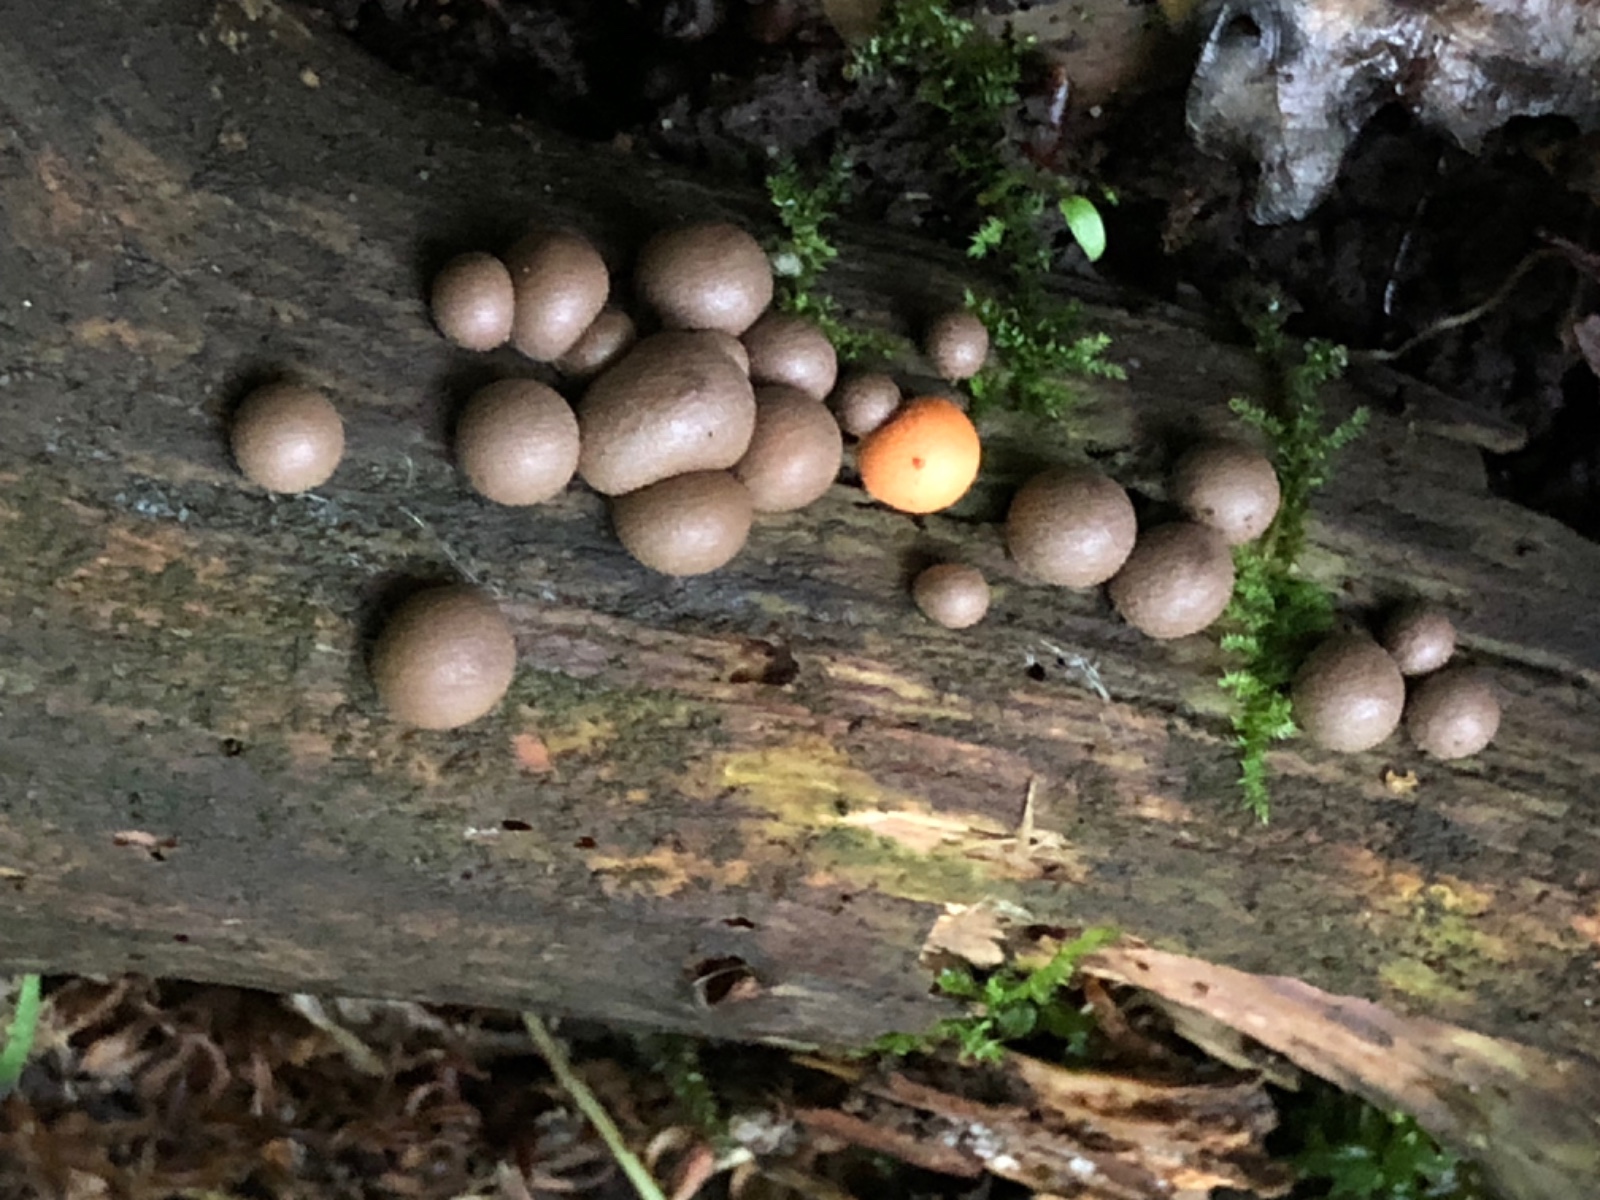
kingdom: Protozoa
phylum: Mycetozoa
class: Myxomycetes
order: Cribrariales
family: Tubiferaceae
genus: Lycogala
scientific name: Lycogala epidendrum
